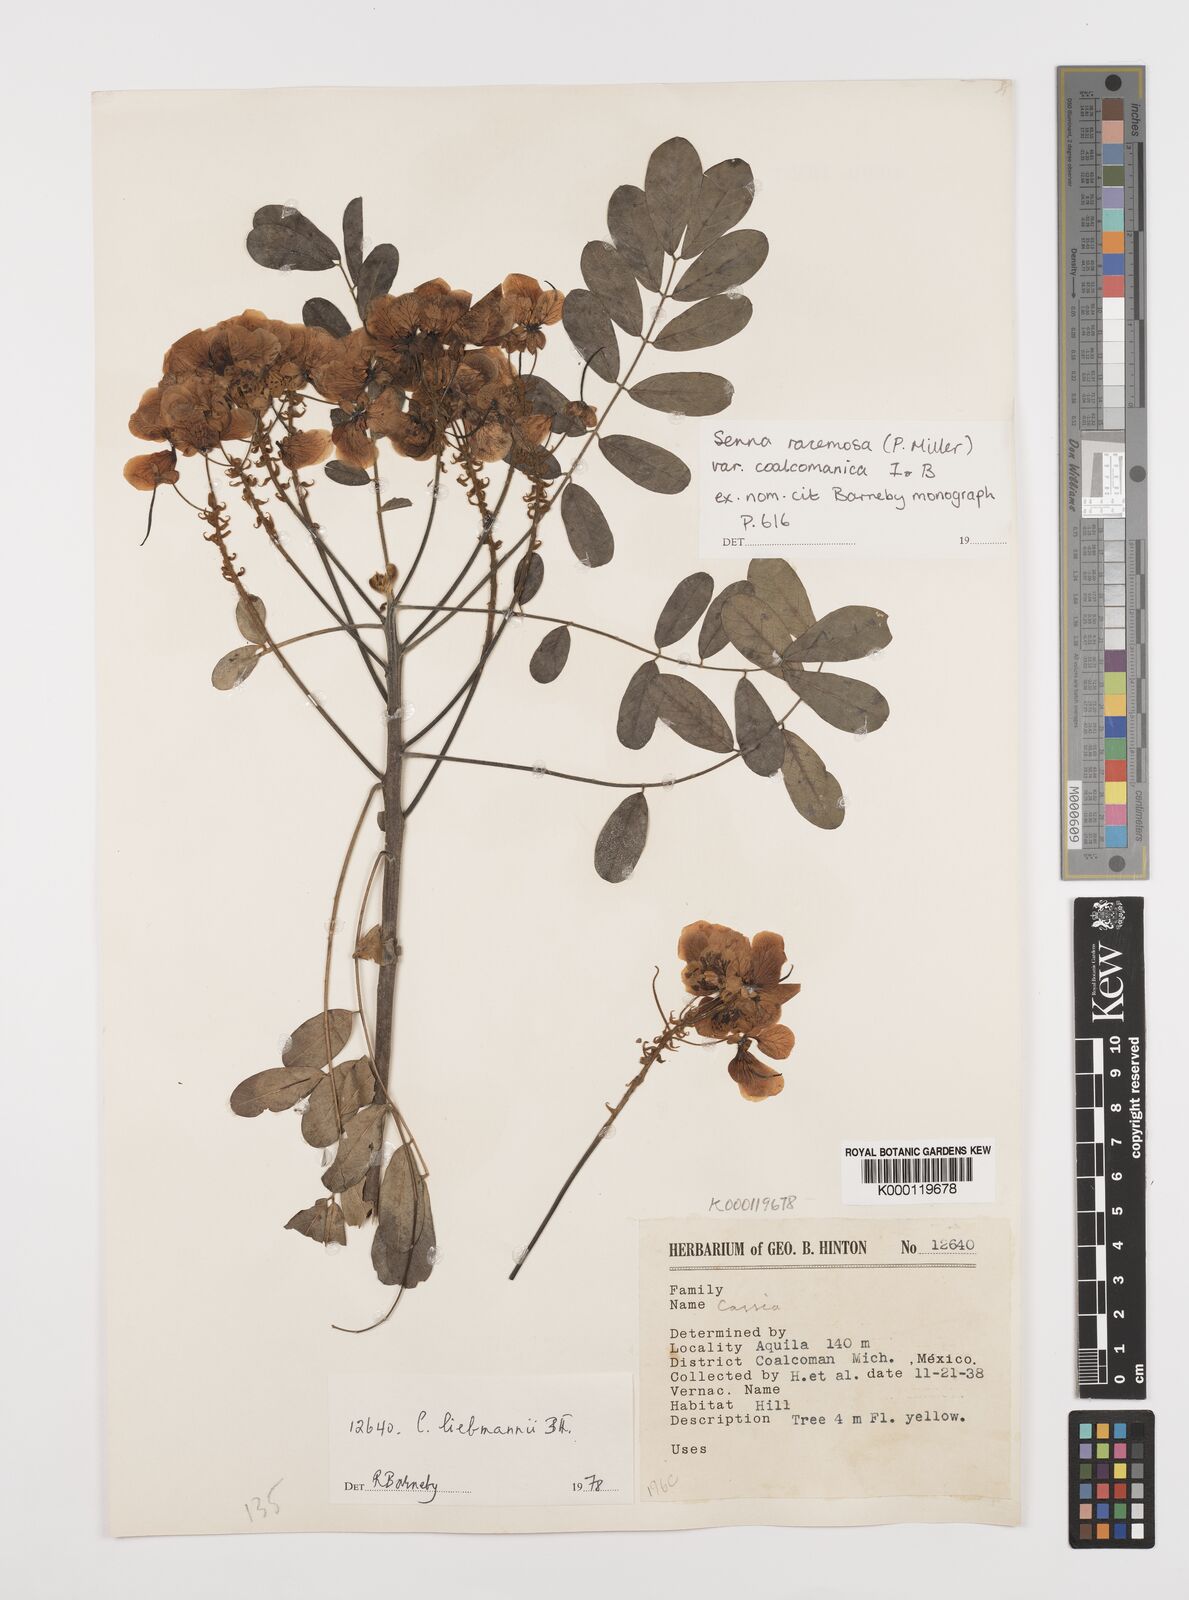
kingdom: Plantae
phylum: Tracheophyta
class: Magnoliopsida
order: Fabales
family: Fabaceae
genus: Senna
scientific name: Senna racemosa
